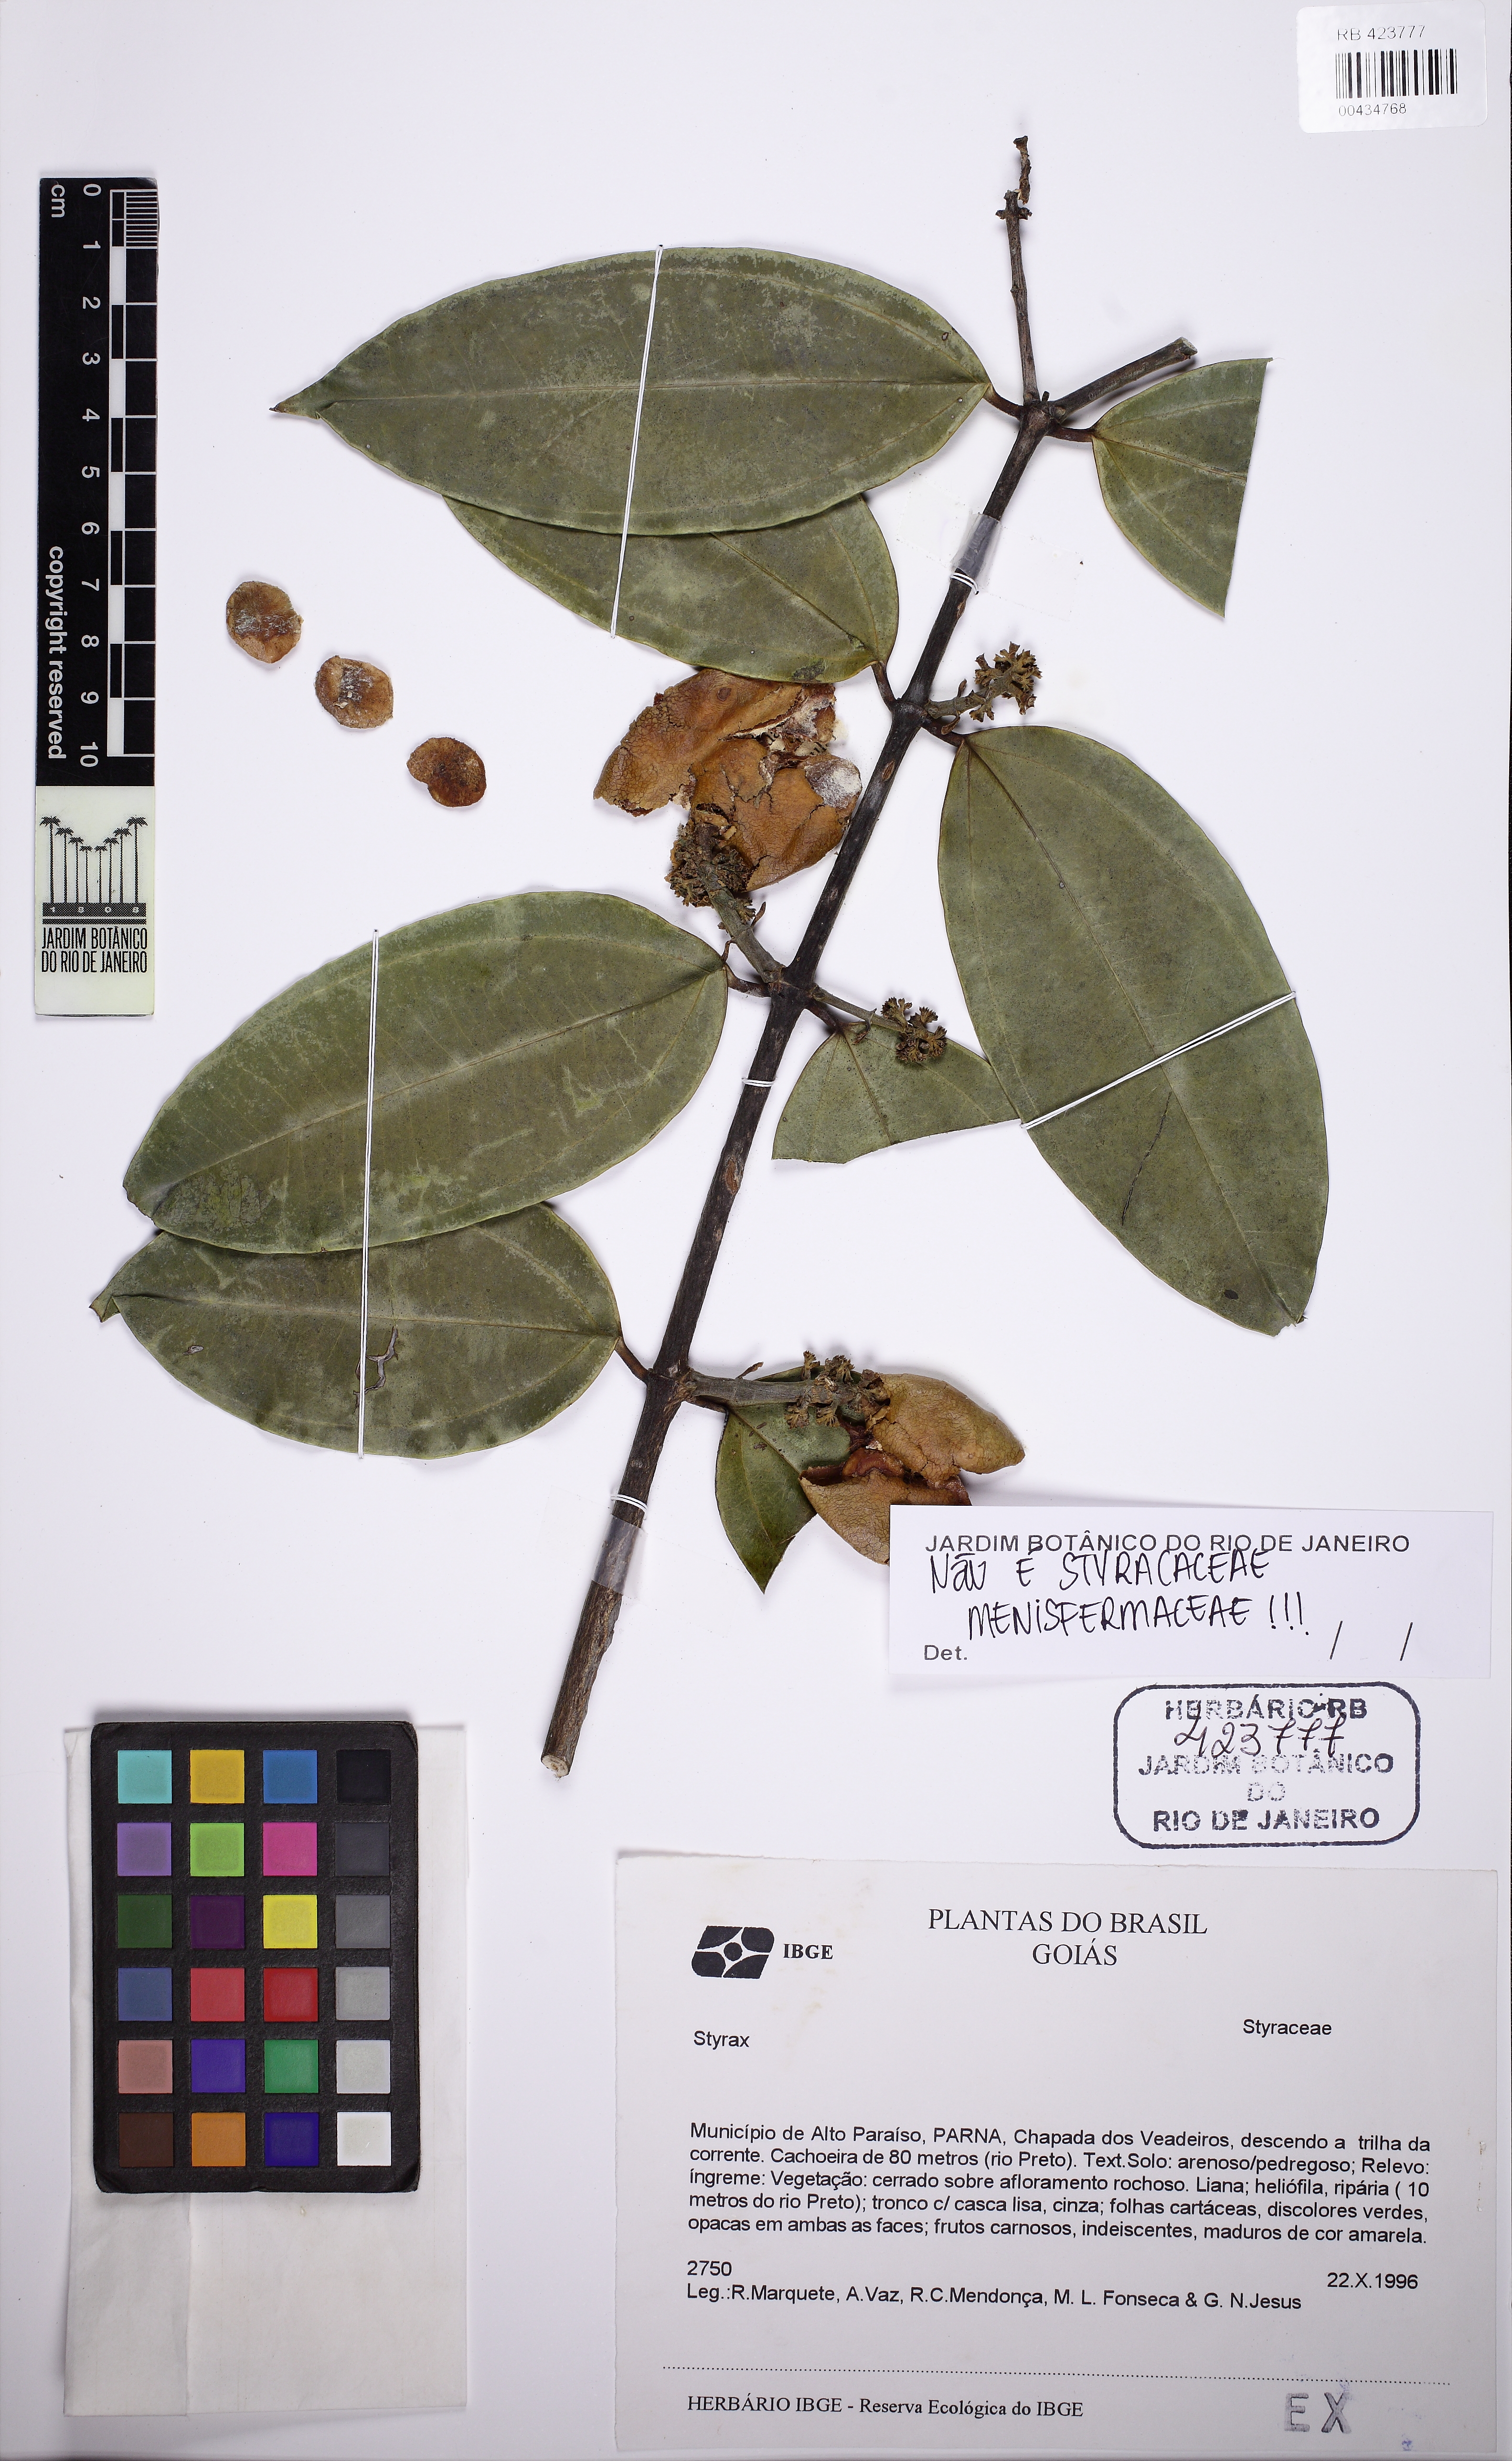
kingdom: Plantae
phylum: Tracheophyta
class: Magnoliopsida
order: Gentianales
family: Loganiaceae
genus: Strychnos
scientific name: Strychnos gardneri
